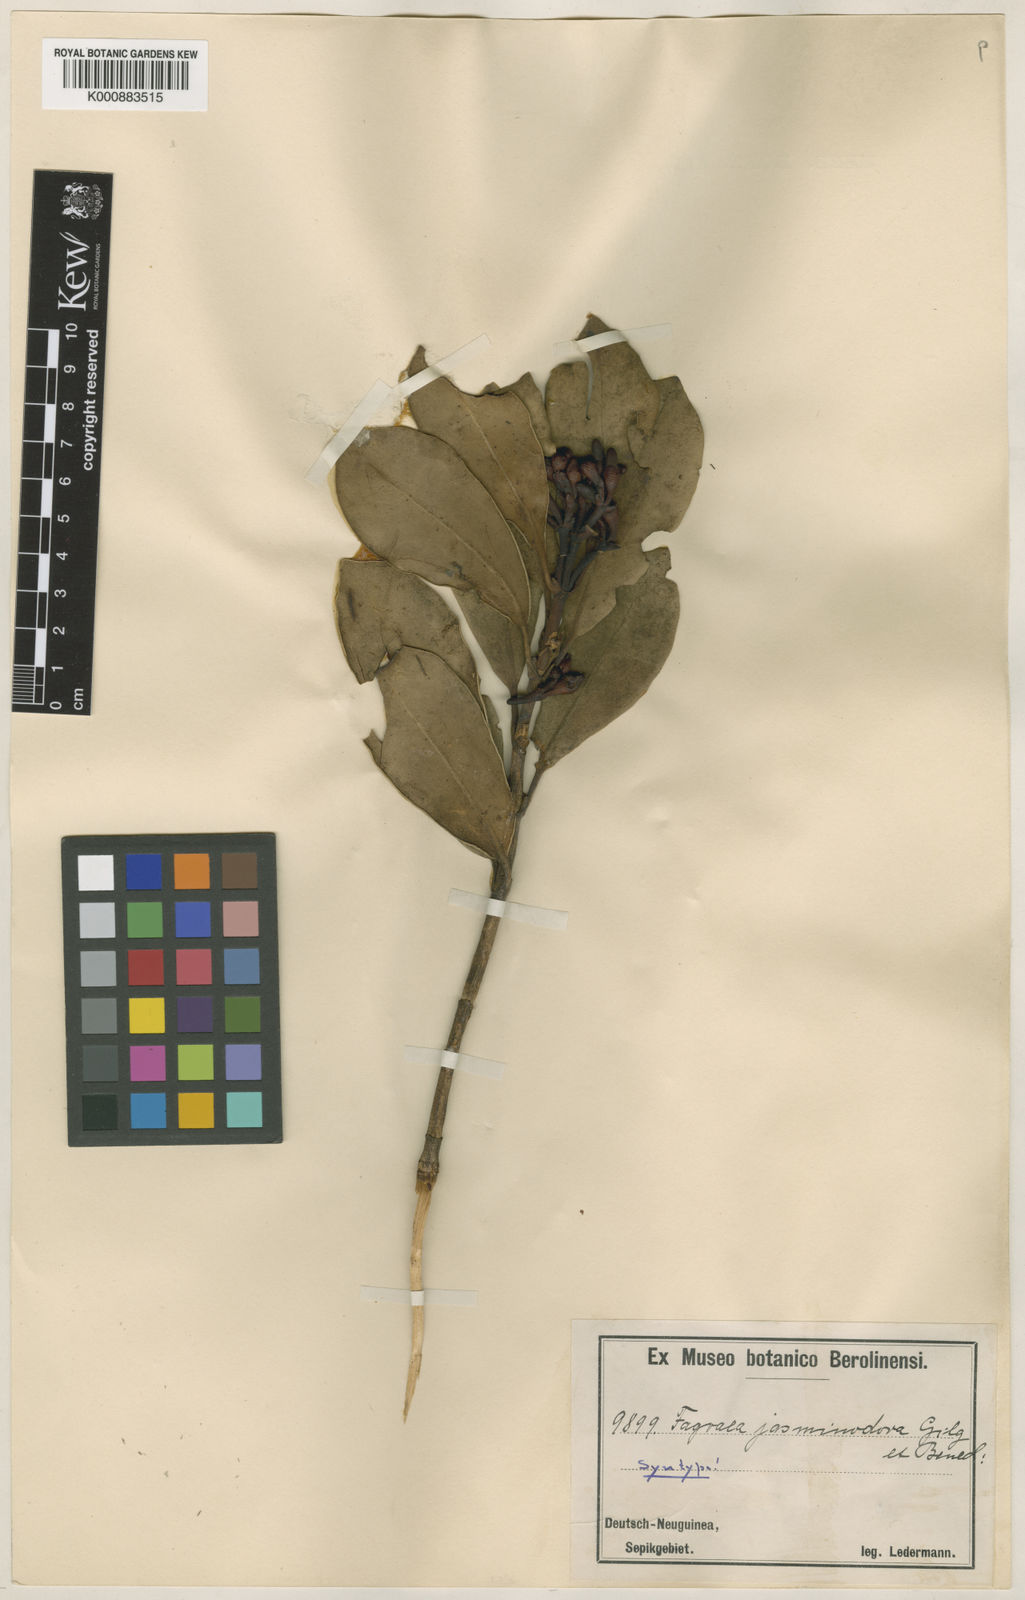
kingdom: Plantae
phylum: Tracheophyta
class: Magnoliopsida
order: Gentianales
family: Gentianaceae
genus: Fagraea
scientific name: Fagraea bodenii
